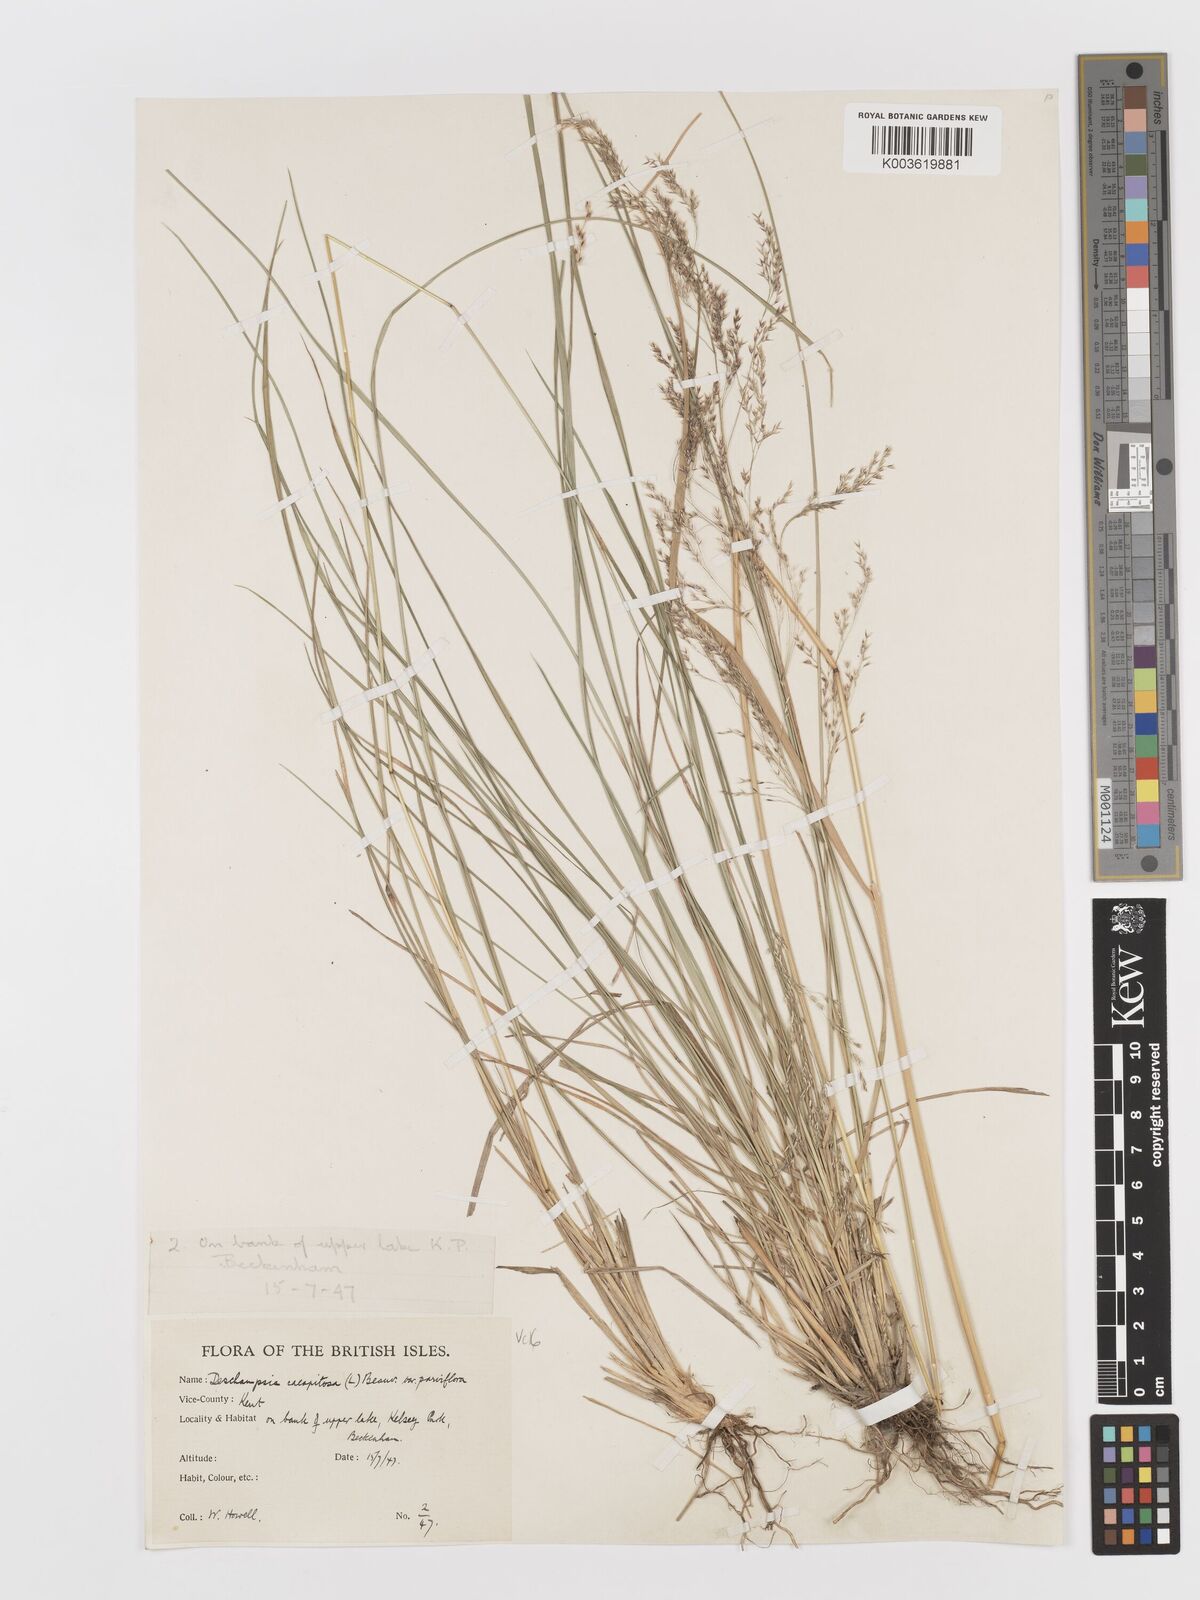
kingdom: Plantae
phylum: Tracheophyta
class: Liliopsida
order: Poales
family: Poaceae
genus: Deschampsia
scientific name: Deschampsia cespitosa
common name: Tufted hair-grass
